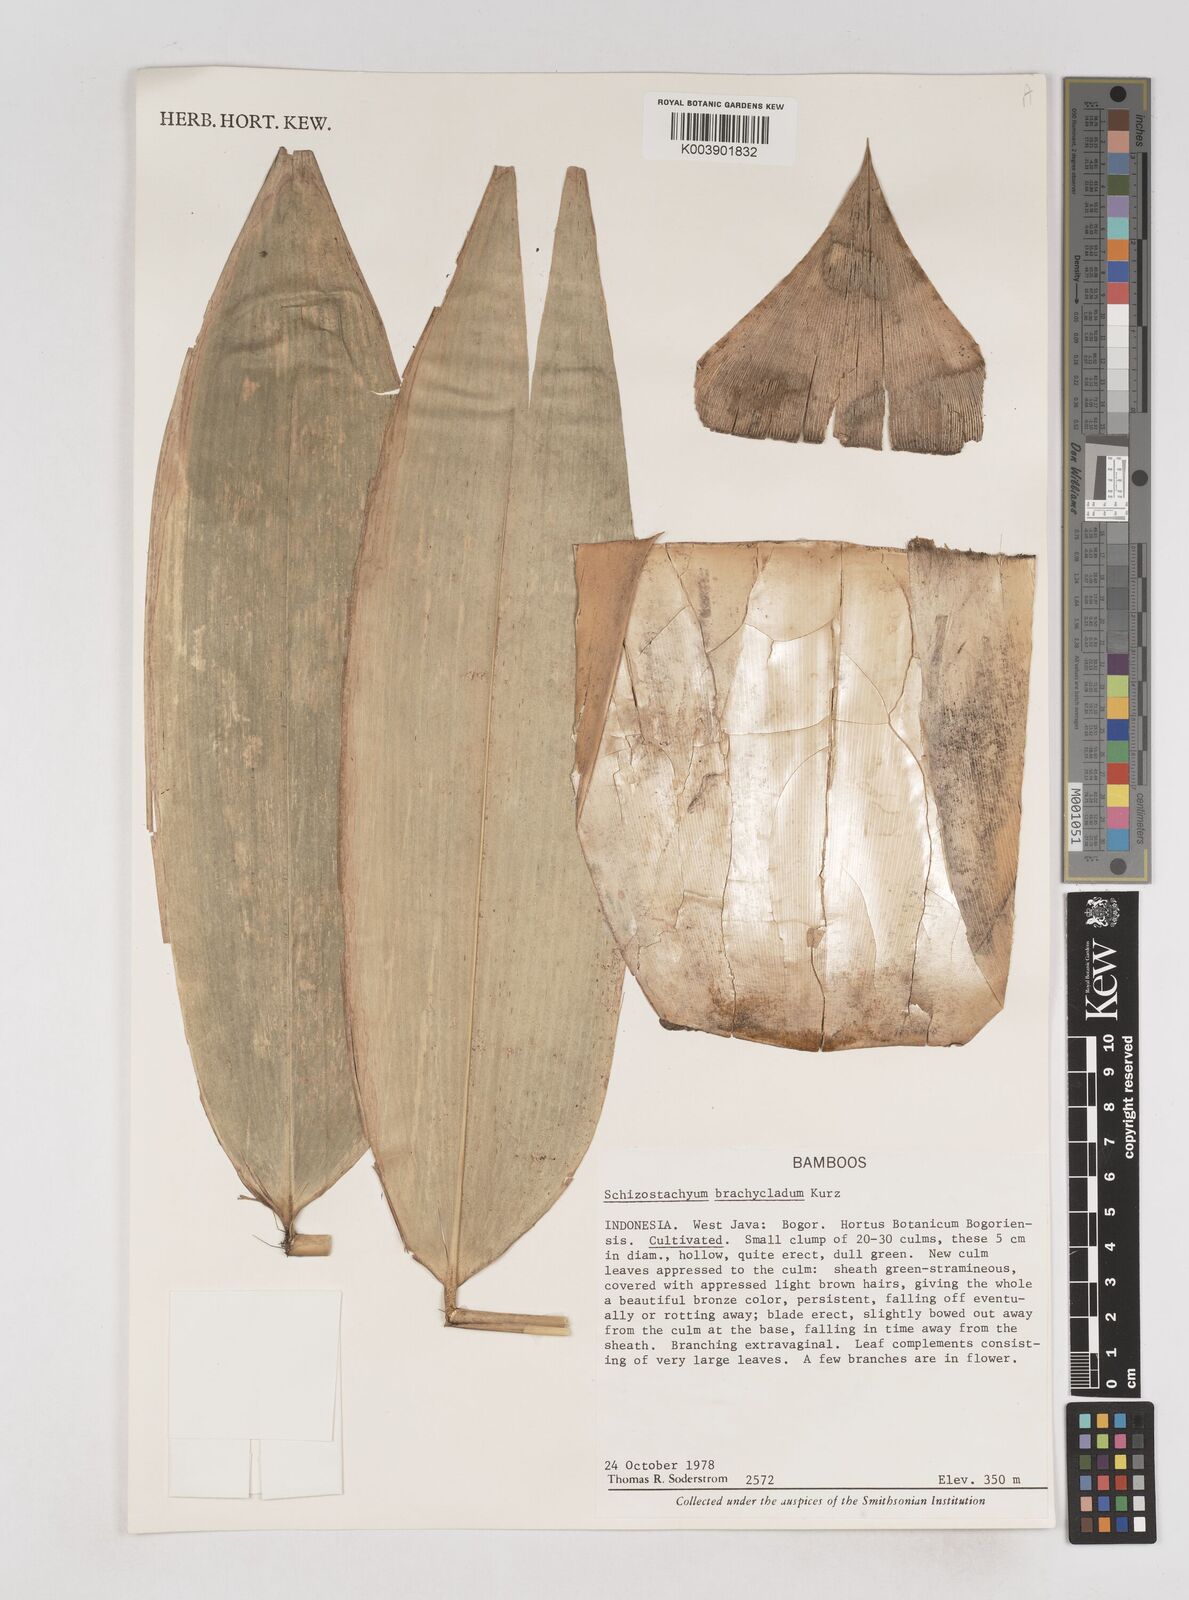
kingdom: Plantae
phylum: Tracheophyta
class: Liliopsida
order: Poales
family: Poaceae
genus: Schizostachyum
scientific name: Schizostachyum brachycladum
